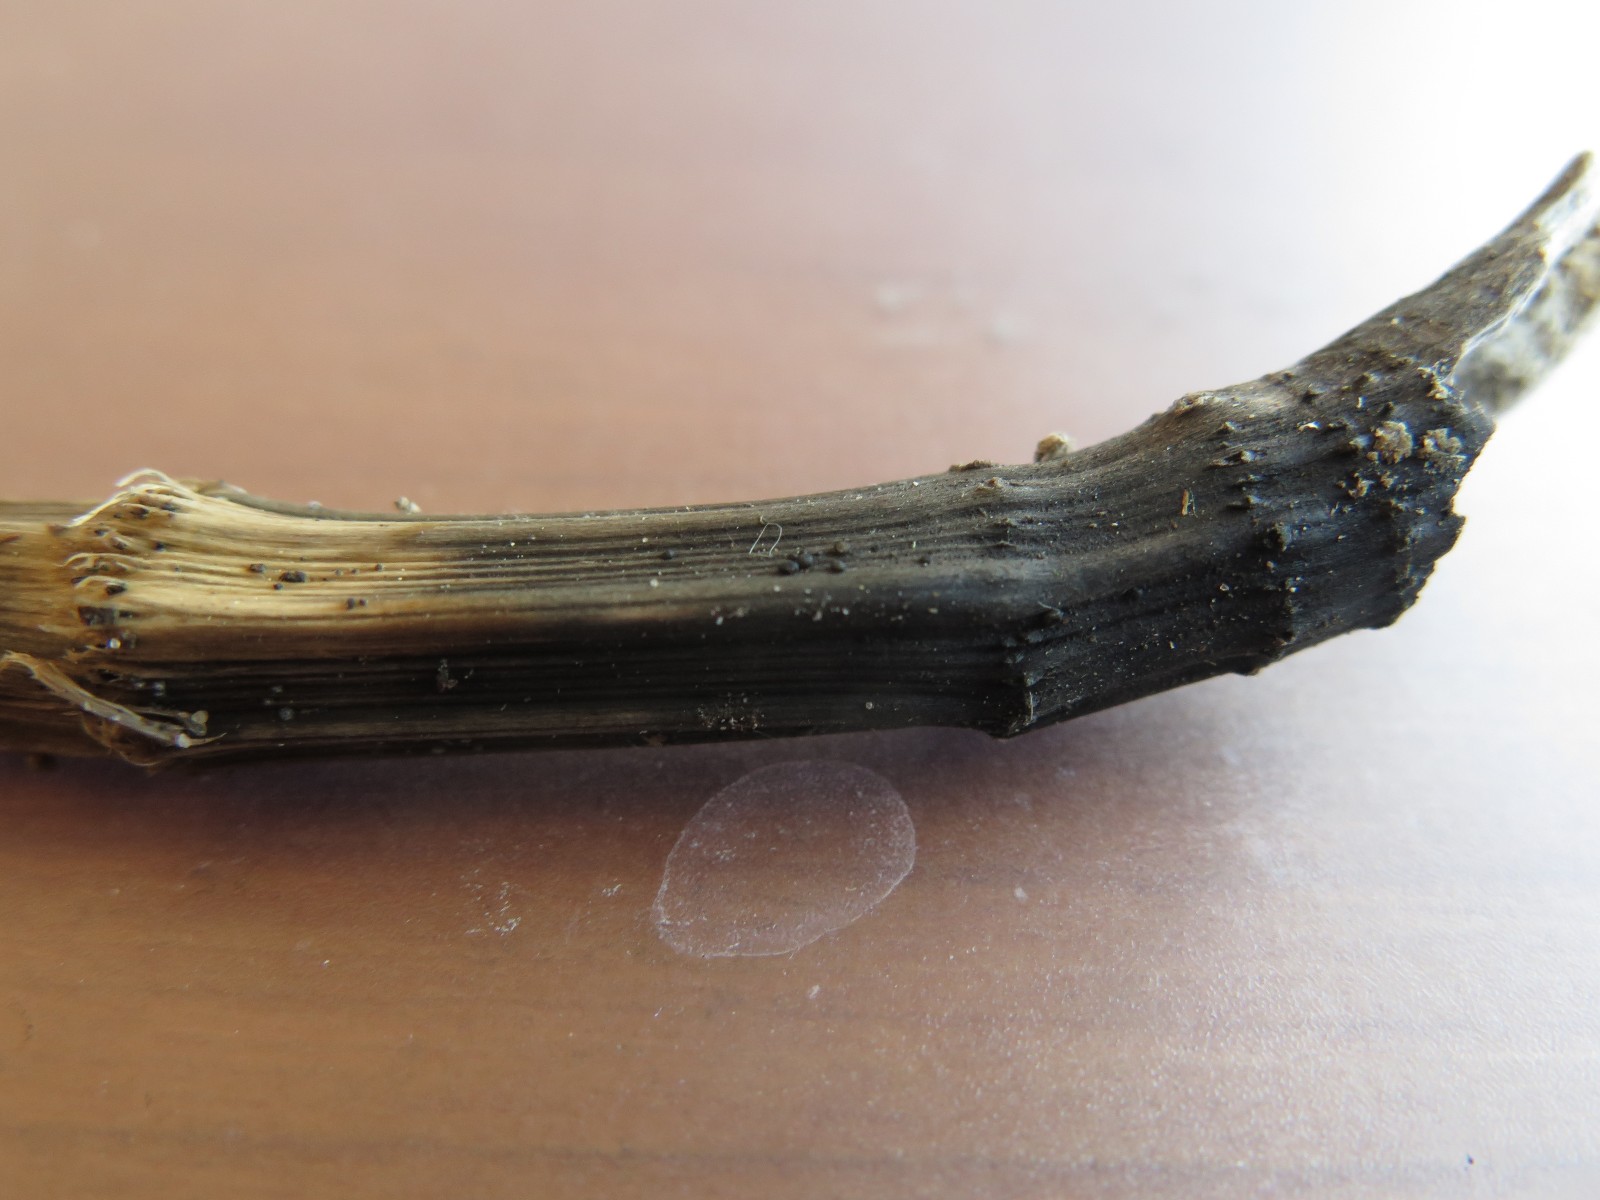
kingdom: Fungi
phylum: Ascomycota
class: Leotiomycetes
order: Helotiales
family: Heterosphaeriaceae
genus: Heterosphaeria
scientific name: Heterosphaeria
